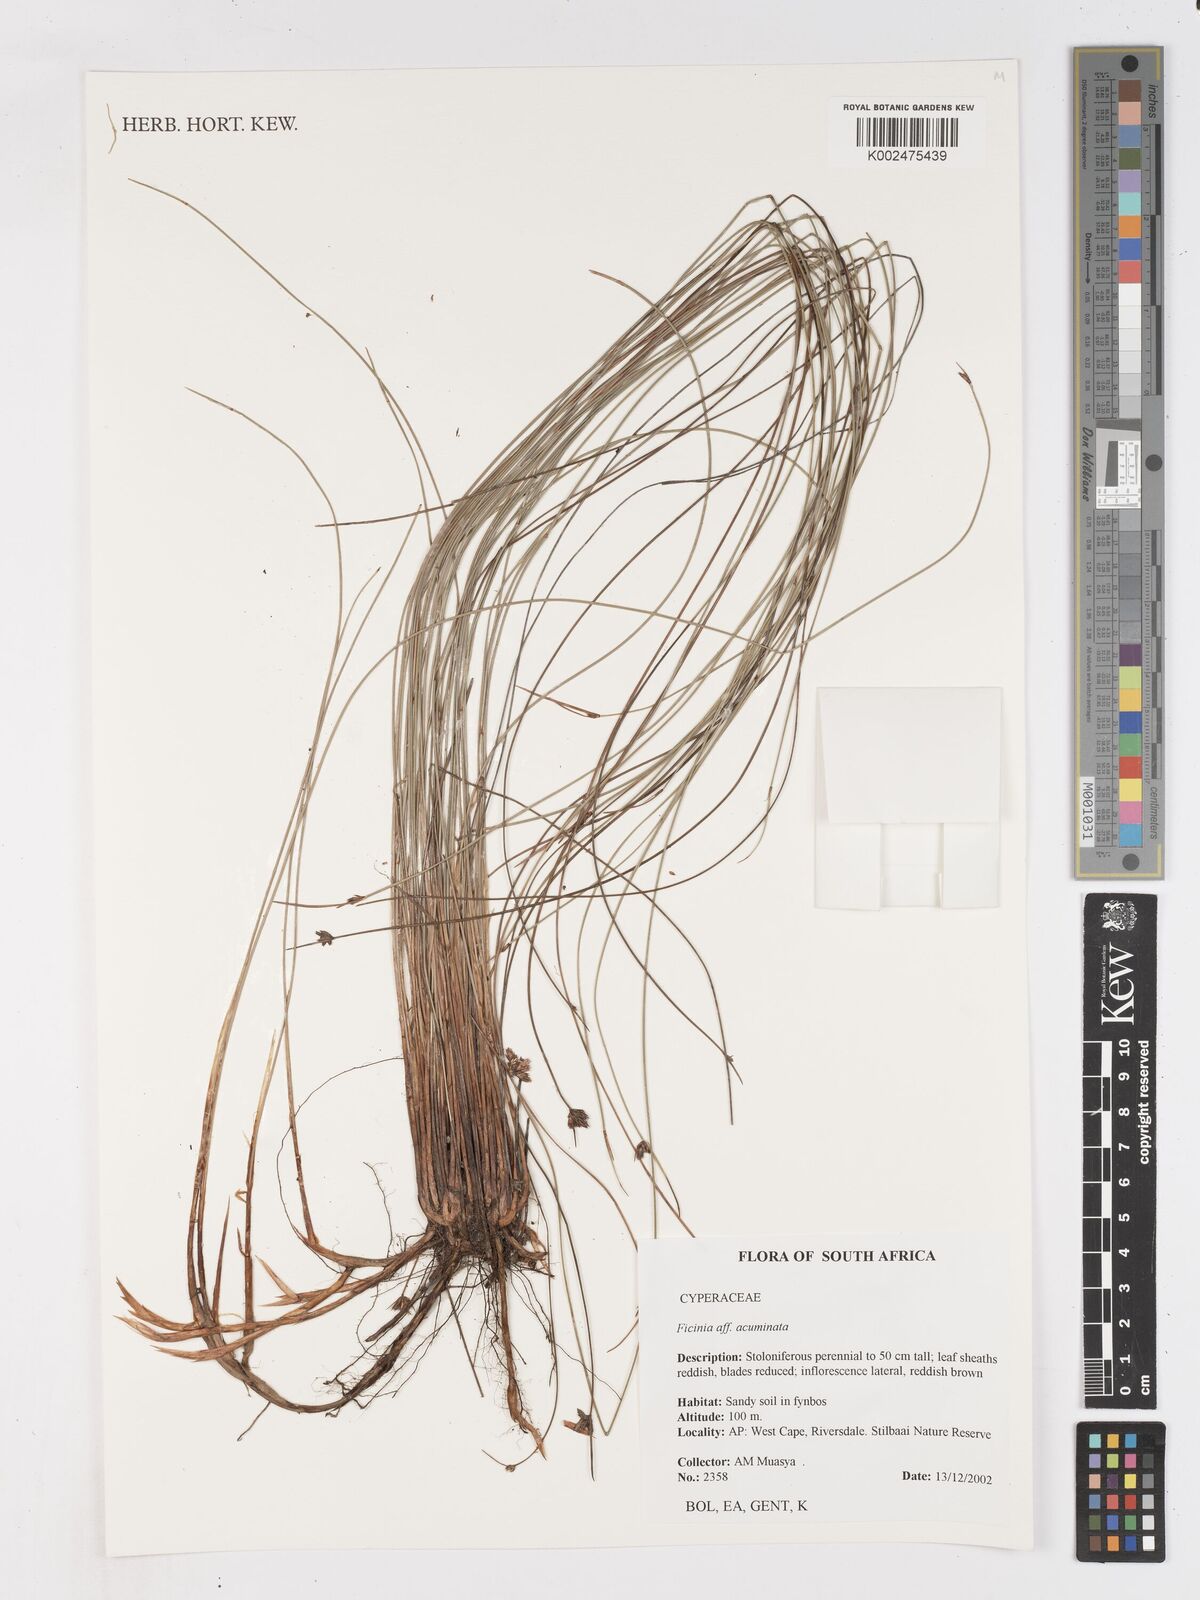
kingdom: Plantae
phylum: Tracheophyta
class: Liliopsida
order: Poales
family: Cyperaceae
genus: Ficinia
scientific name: Ficinia acuminata
